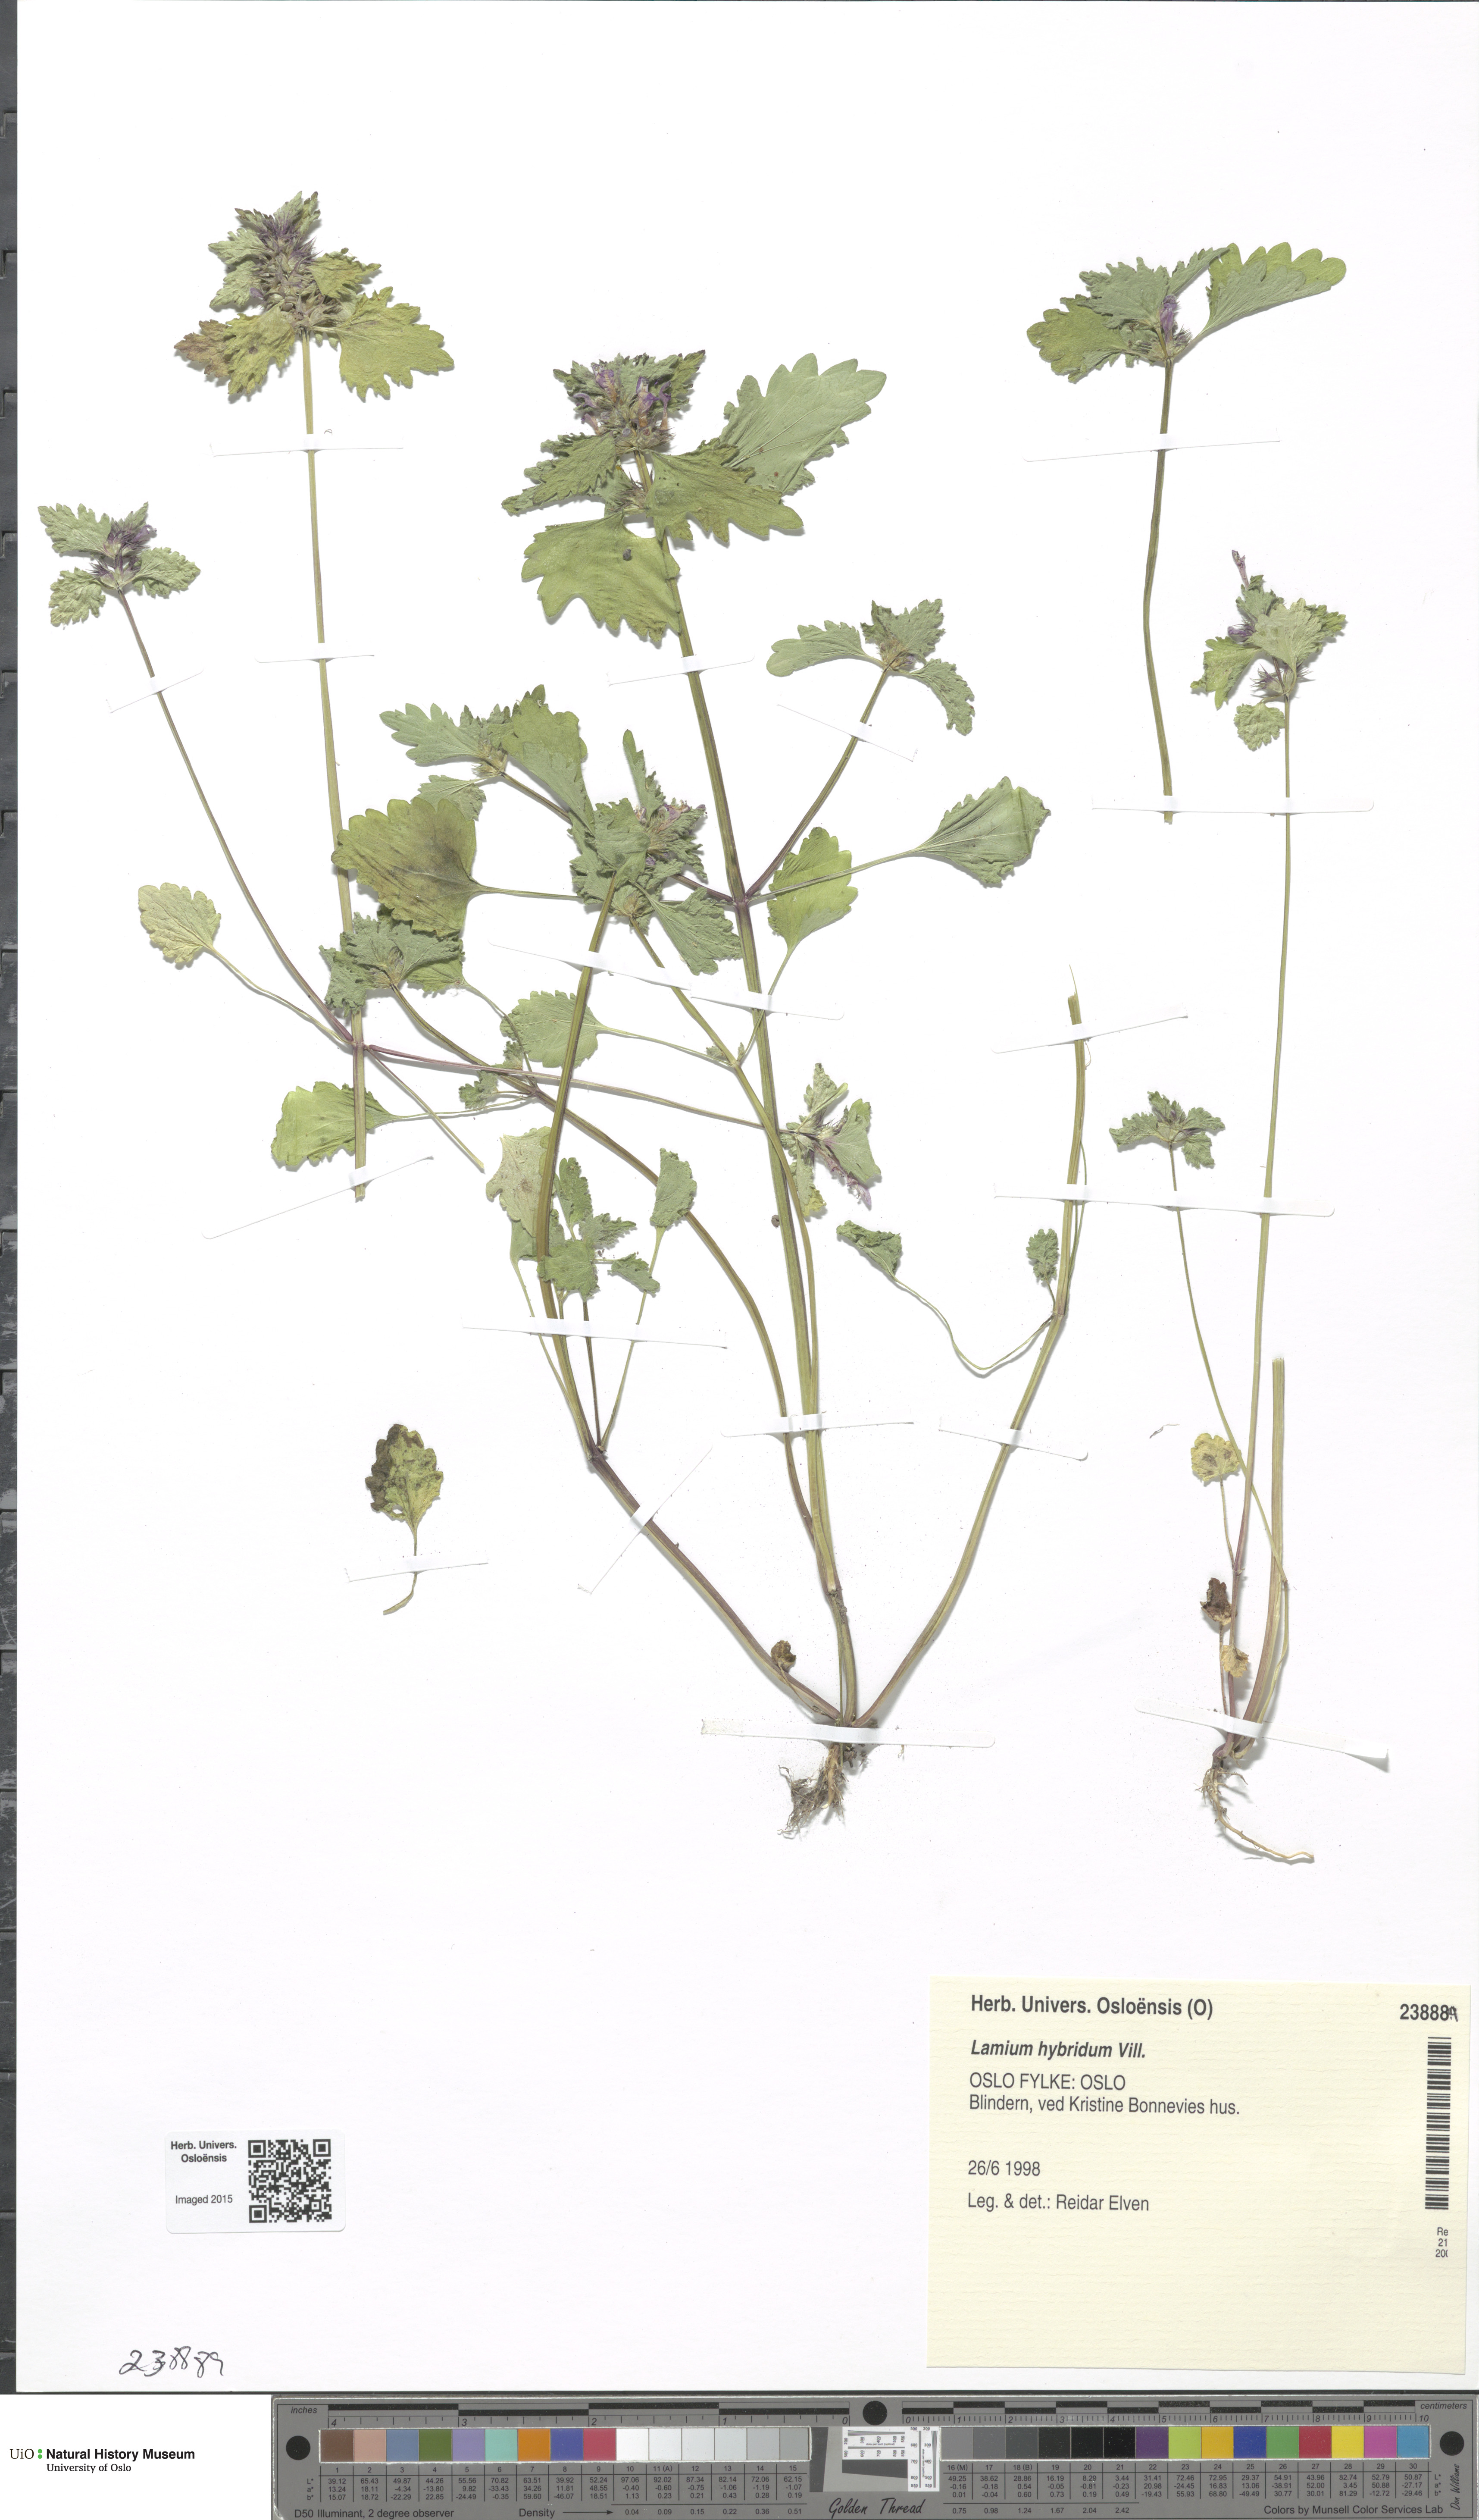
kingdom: Plantae
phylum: Tracheophyta
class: Magnoliopsida
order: Lamiales
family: Lamiaceae
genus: Lamium
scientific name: Lamium hybridum
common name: Cut-leaved dead-nettle
